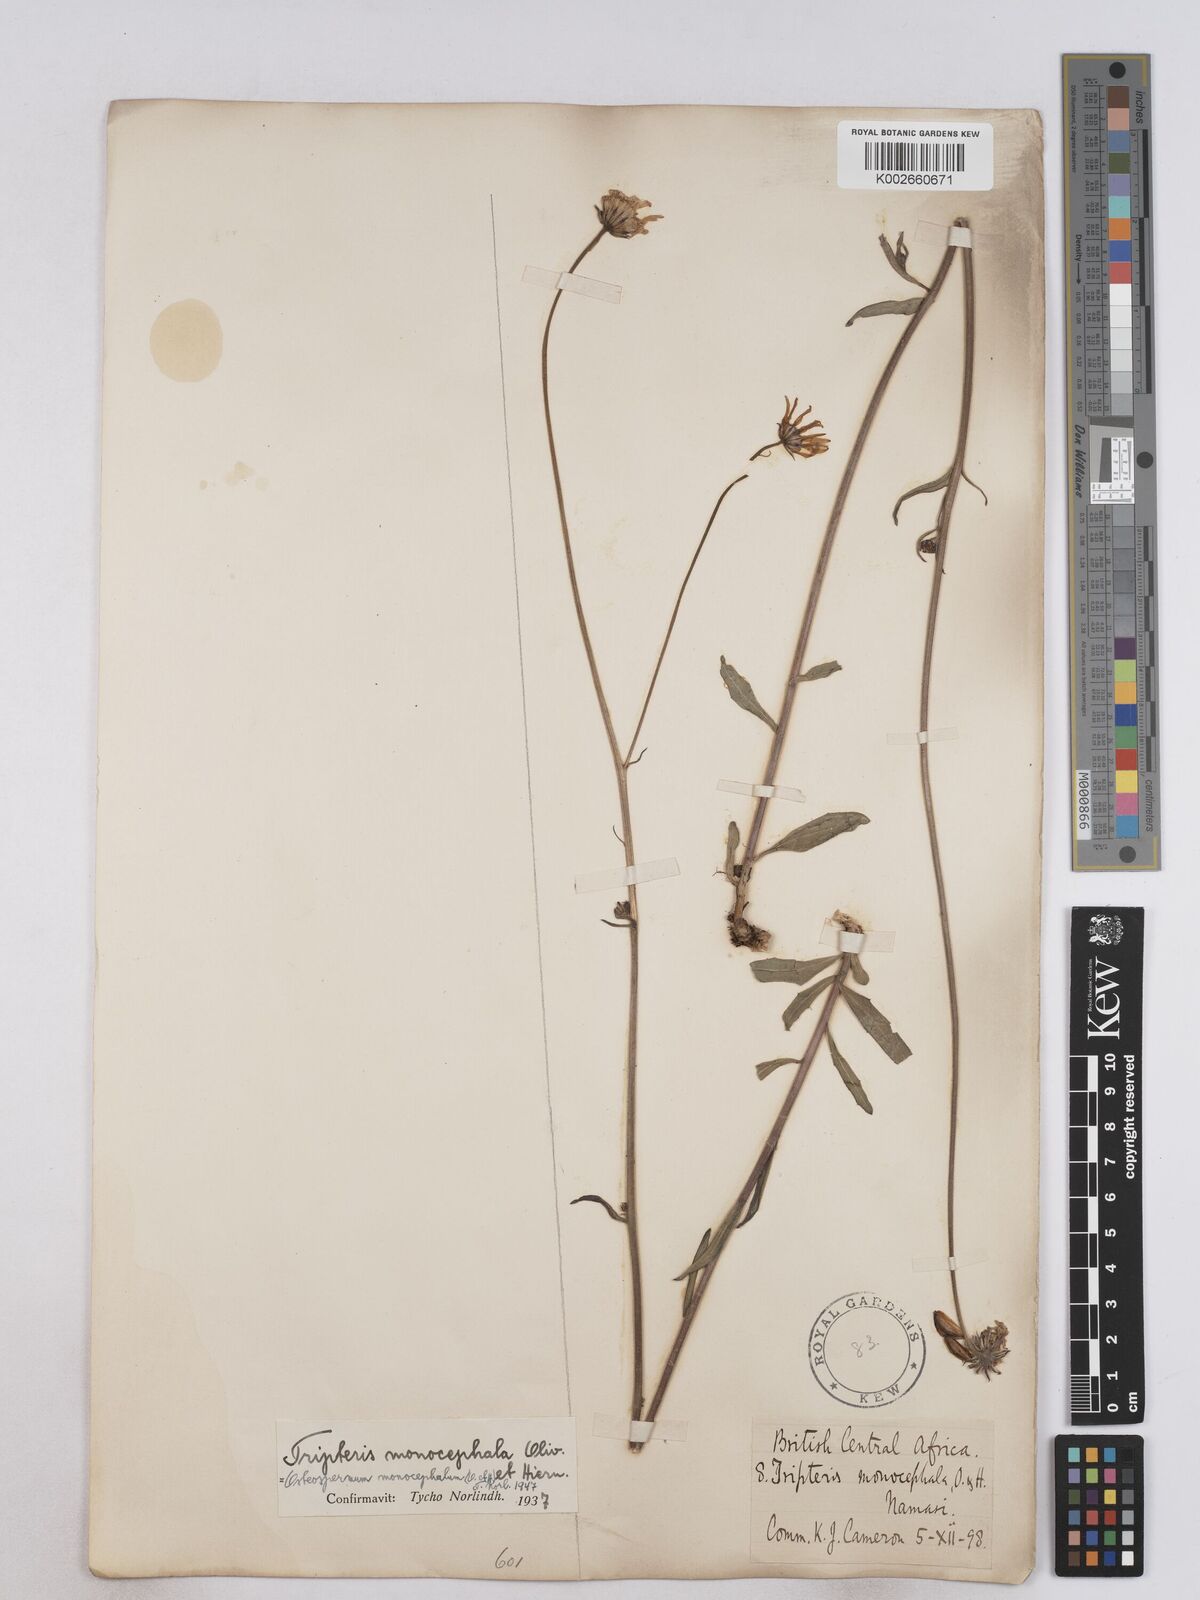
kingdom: Plantae
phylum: Tracheophyta
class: Magnoliopsida
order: Asterales
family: Asteraceae
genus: Osteospermum
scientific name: Osteospermum monocephalum
